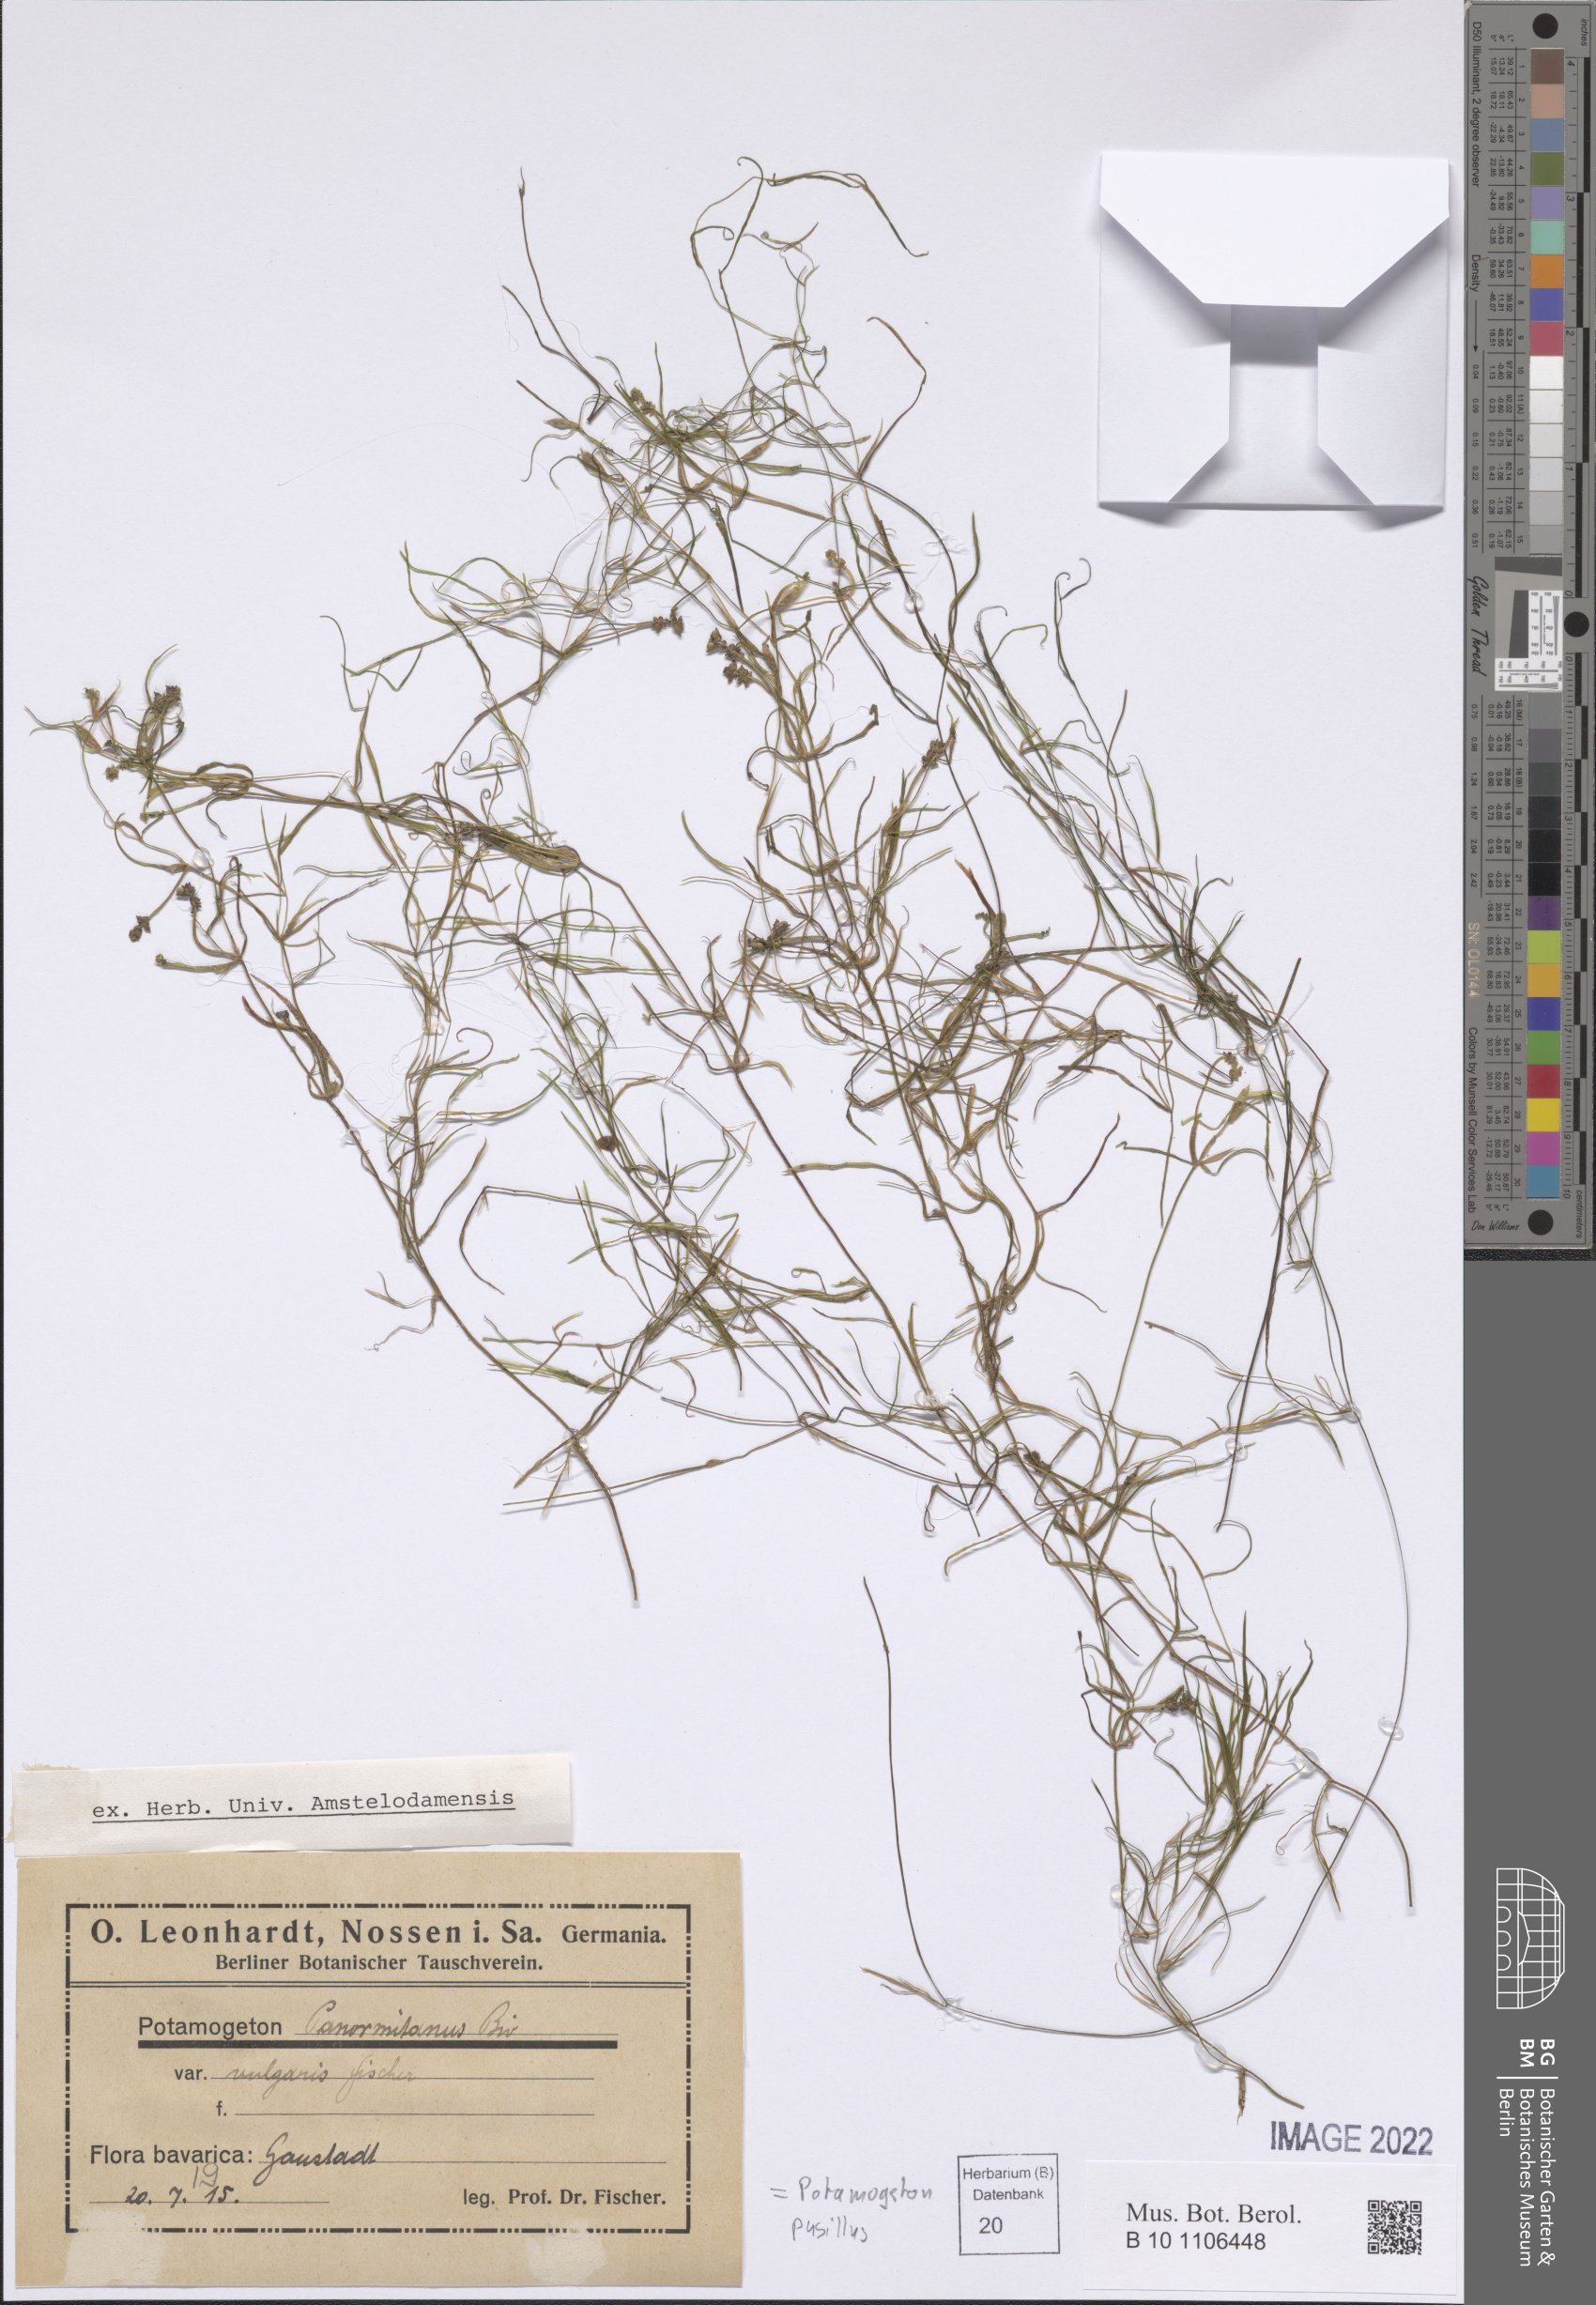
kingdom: Plantae
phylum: Tracheophyta
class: Liliopsida
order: Alismatales
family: Potamogetonaceae
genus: Potamogeton
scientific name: Potamogeton pusillus
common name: Lesser pondweed
